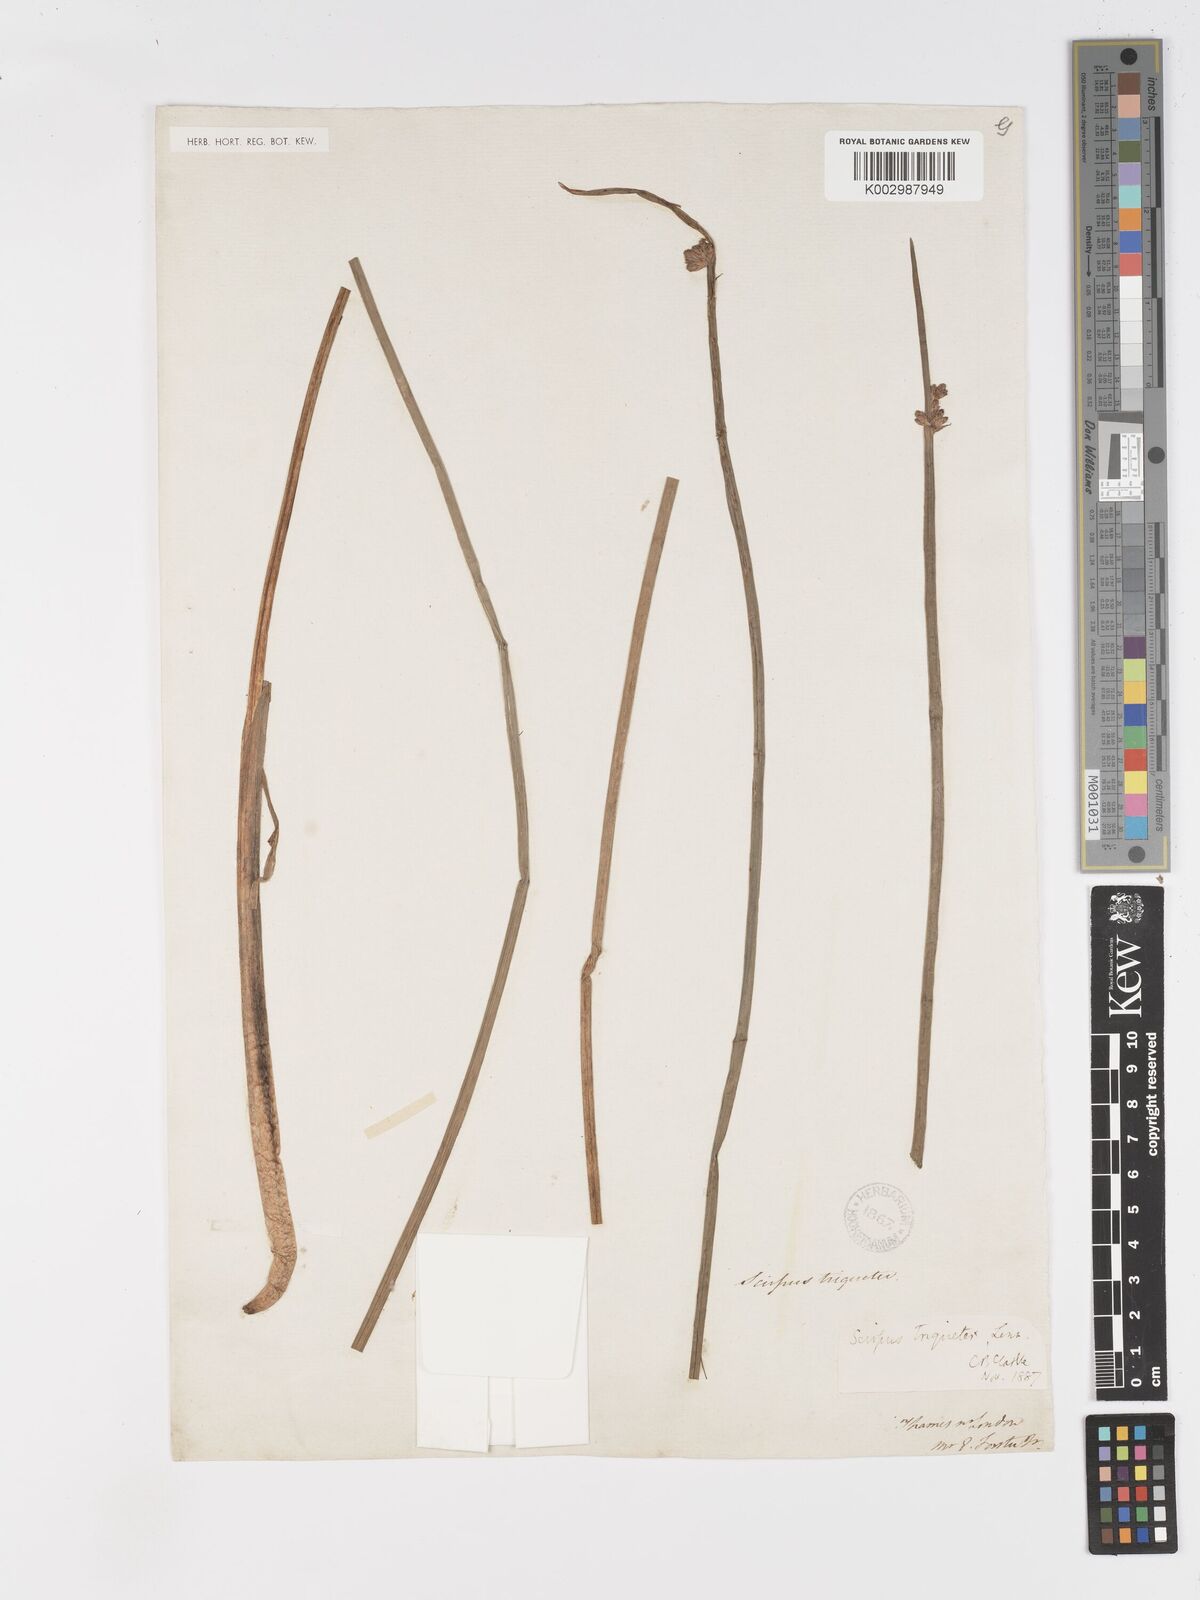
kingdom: Plantae
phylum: Tracheophyta
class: Liliopsida
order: Poales
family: Cyperaceae
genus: Schoenoplectus
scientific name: Schoenoplectus triqueter
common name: Triangular club-rush
